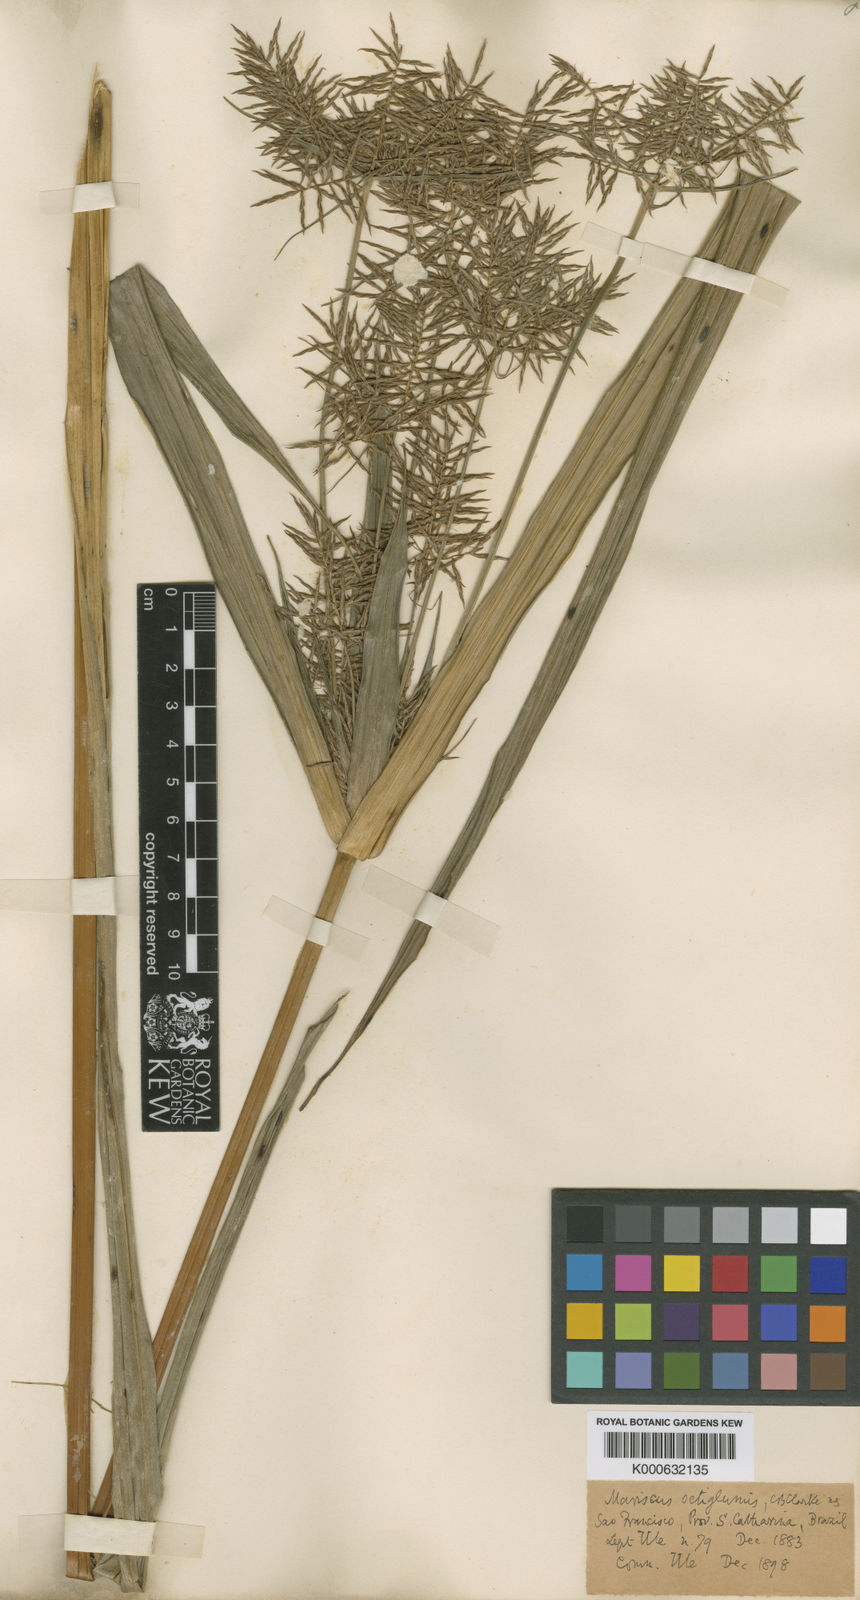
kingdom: Plantae
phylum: Tracheophyta
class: Liliopsida
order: Poales
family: Cyperaceae
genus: Cyperus
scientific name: Cyperus pohlii
